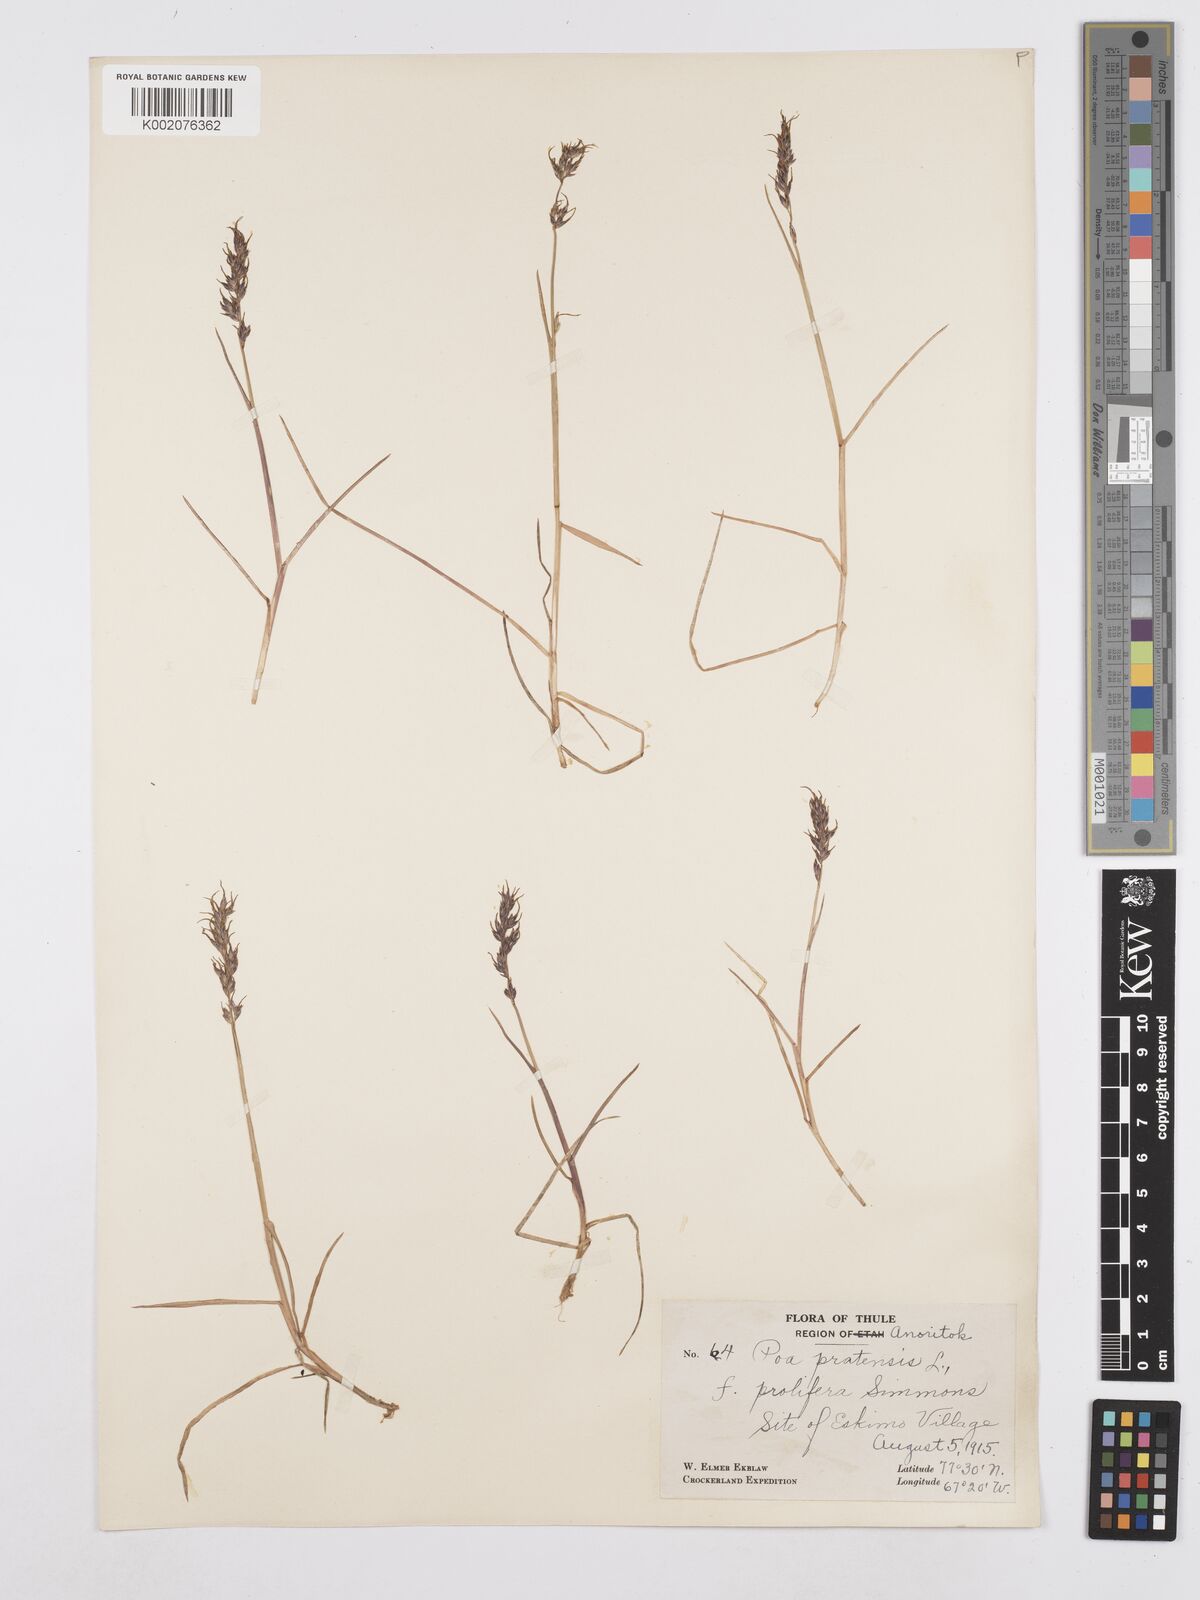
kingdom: Plantae
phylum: Tracheophyta
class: Liliopsida
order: Poales
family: Poaceae
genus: Poa
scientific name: Poa
